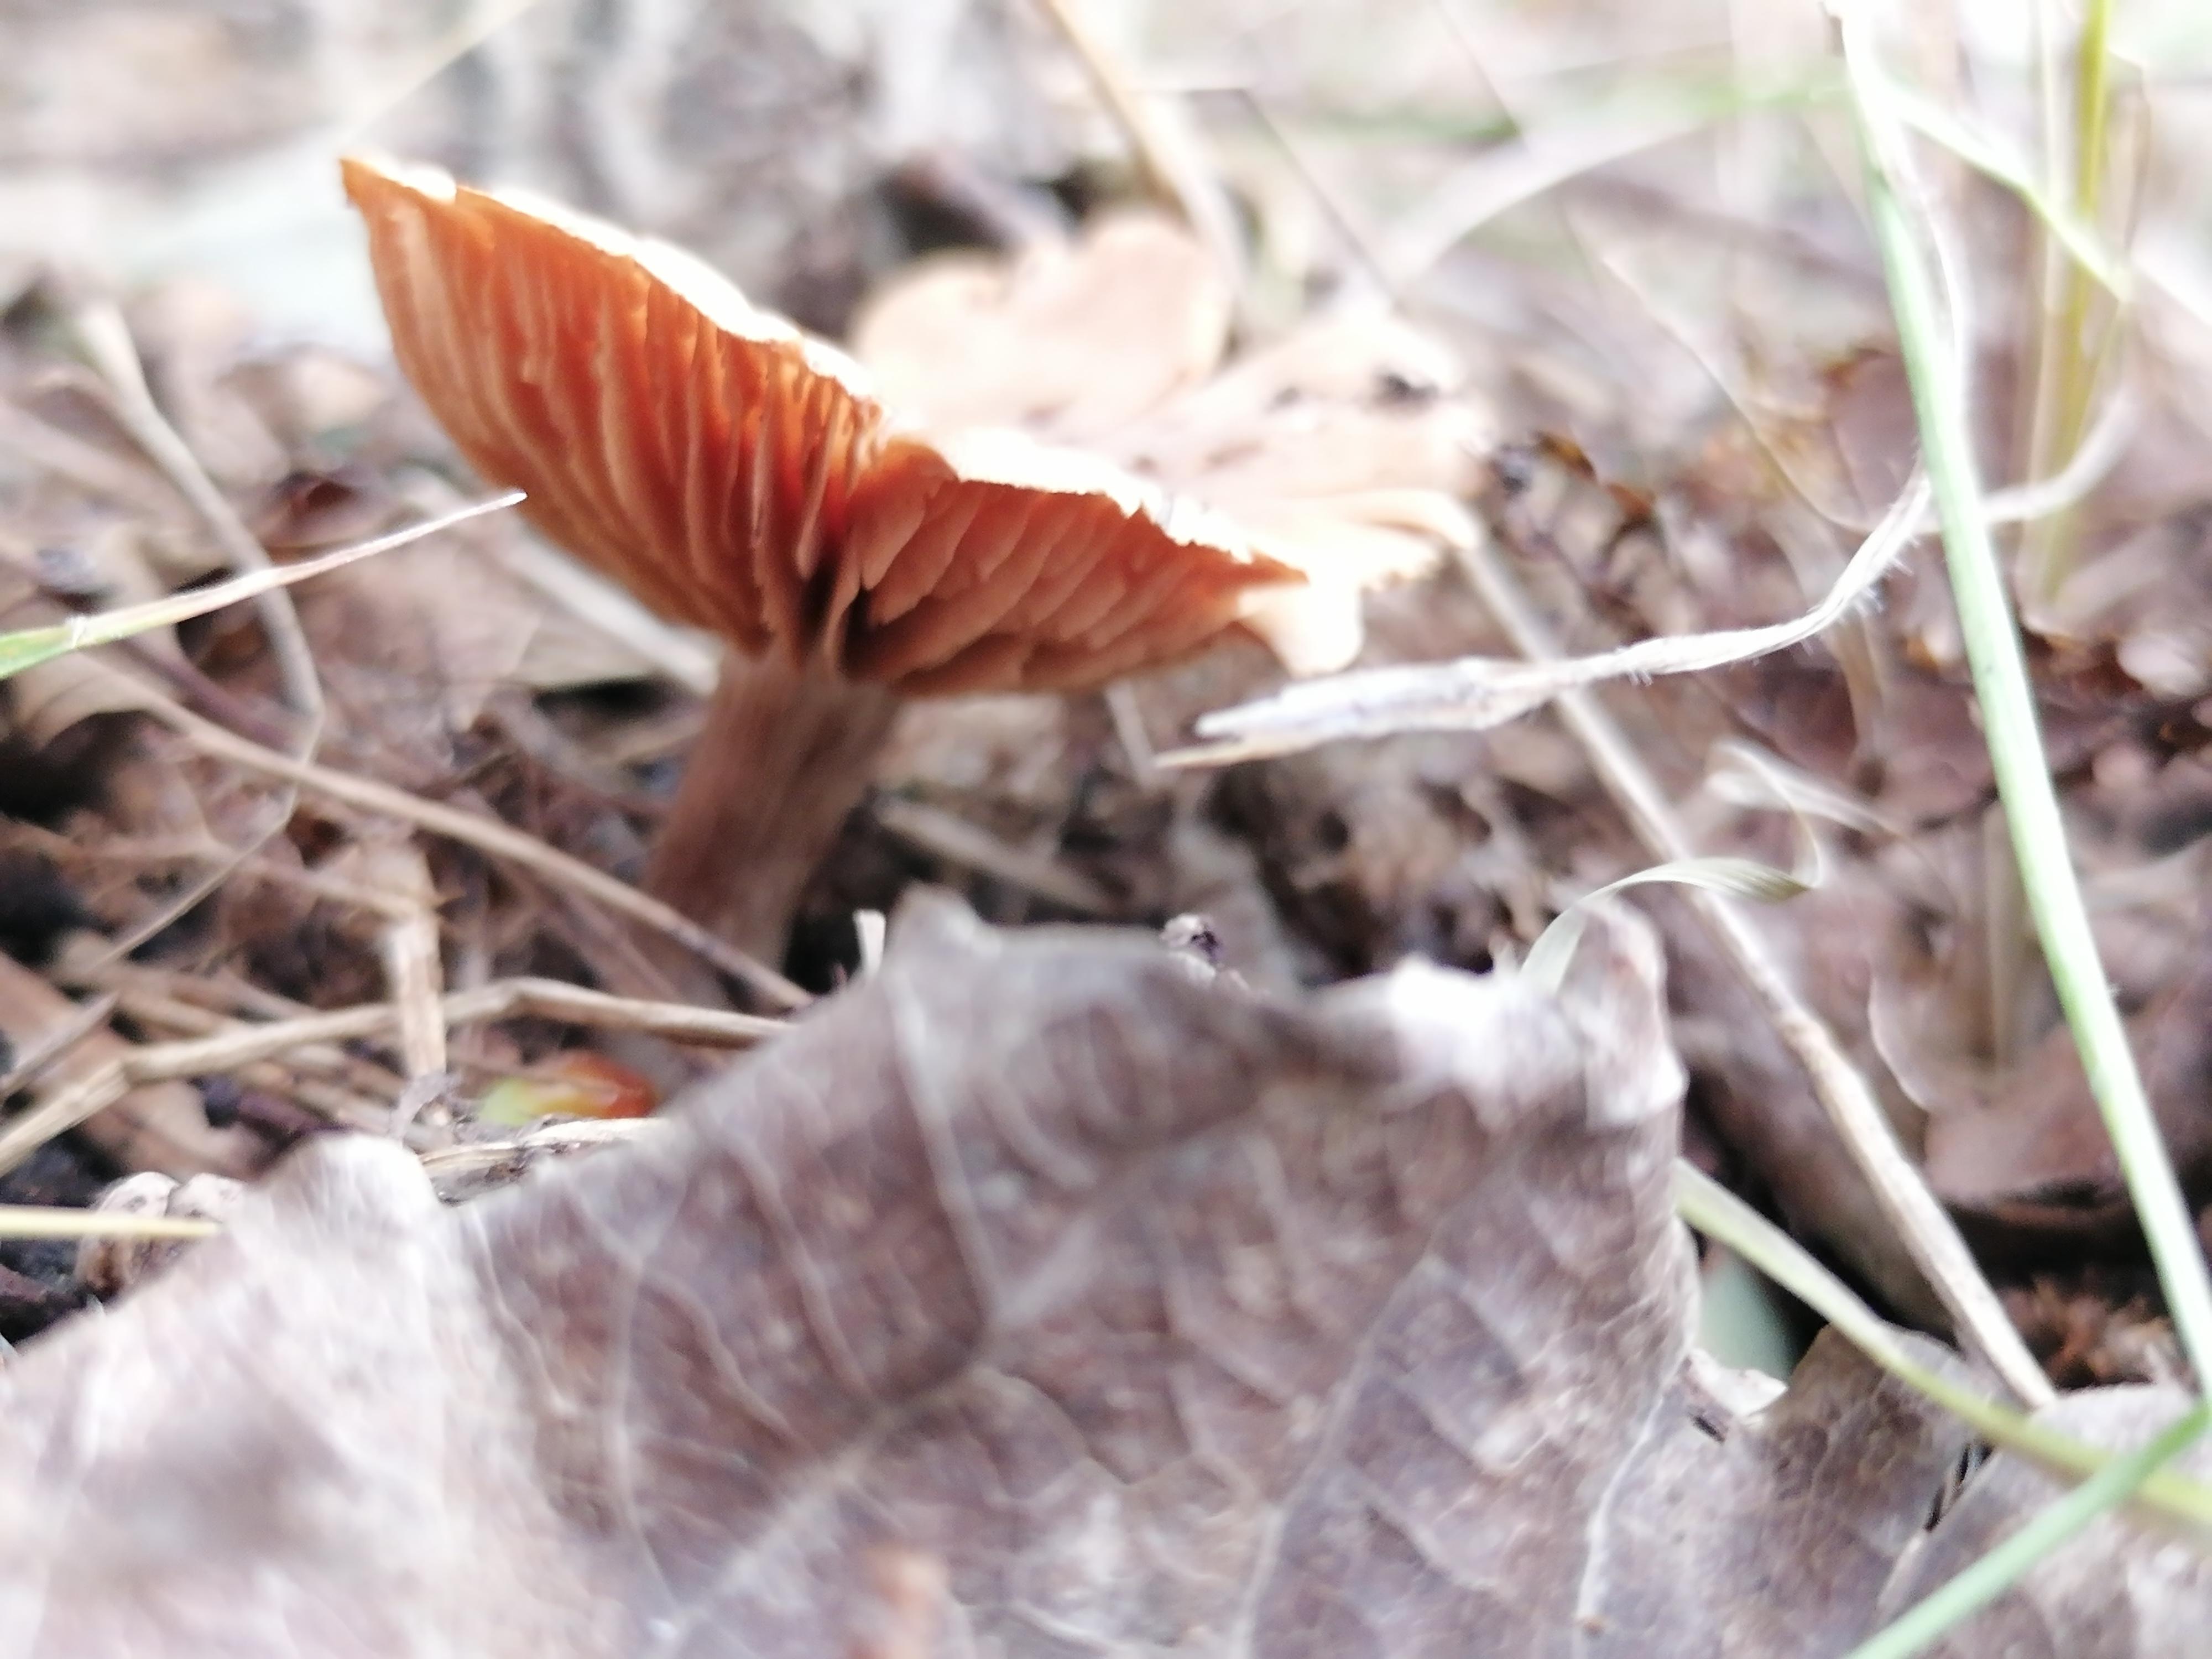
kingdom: Fungi
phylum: Basidiomycota
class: Agaricomycetes
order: Agaricales
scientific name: Agaricales
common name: champignonordenen
